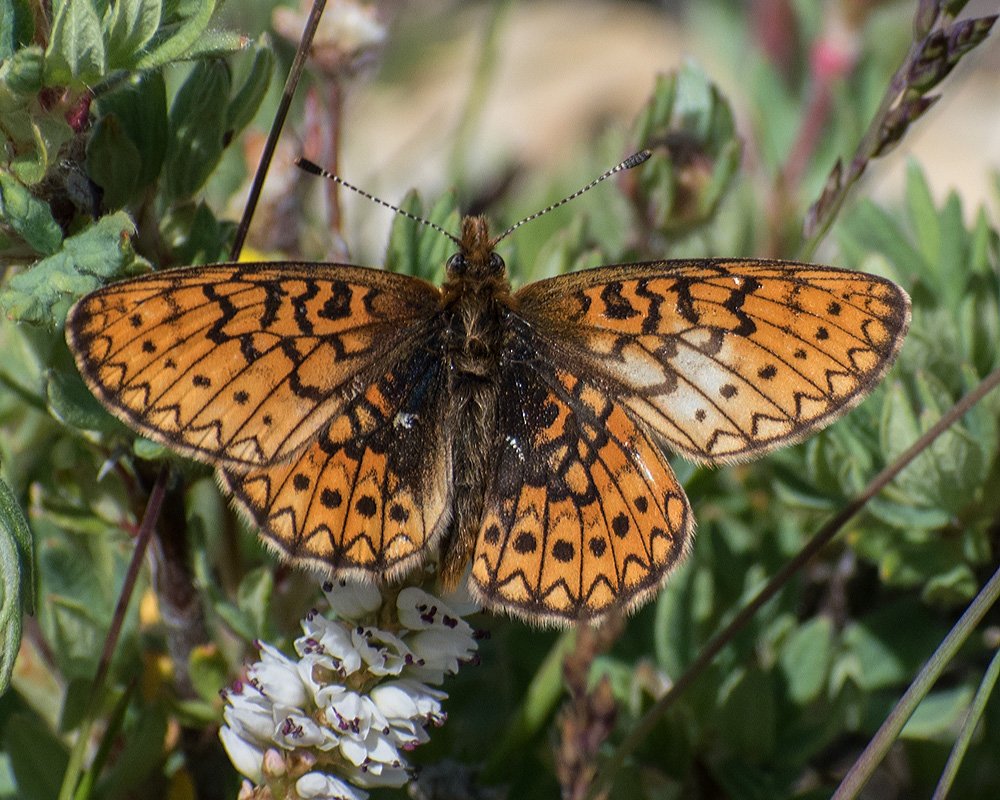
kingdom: Animalia
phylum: Arthropoda
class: Insecta
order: Lepidoptera
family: Nymphalidae
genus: Boloria
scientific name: Boloria eunomia
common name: Bog Fritillary
